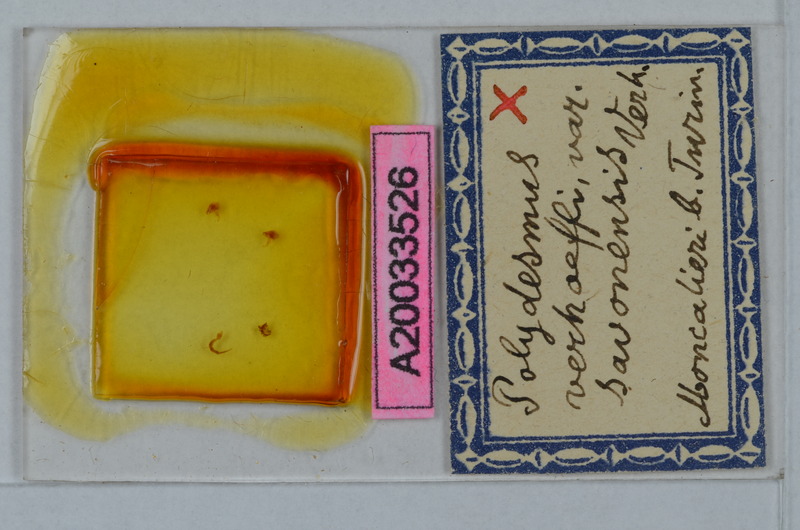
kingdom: Animalia
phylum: Arthropoda
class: Diplopoda
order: Polydesmida
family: Polydesmidae
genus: Polydesmus
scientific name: Polydesmus angustus
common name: Flat millipede
